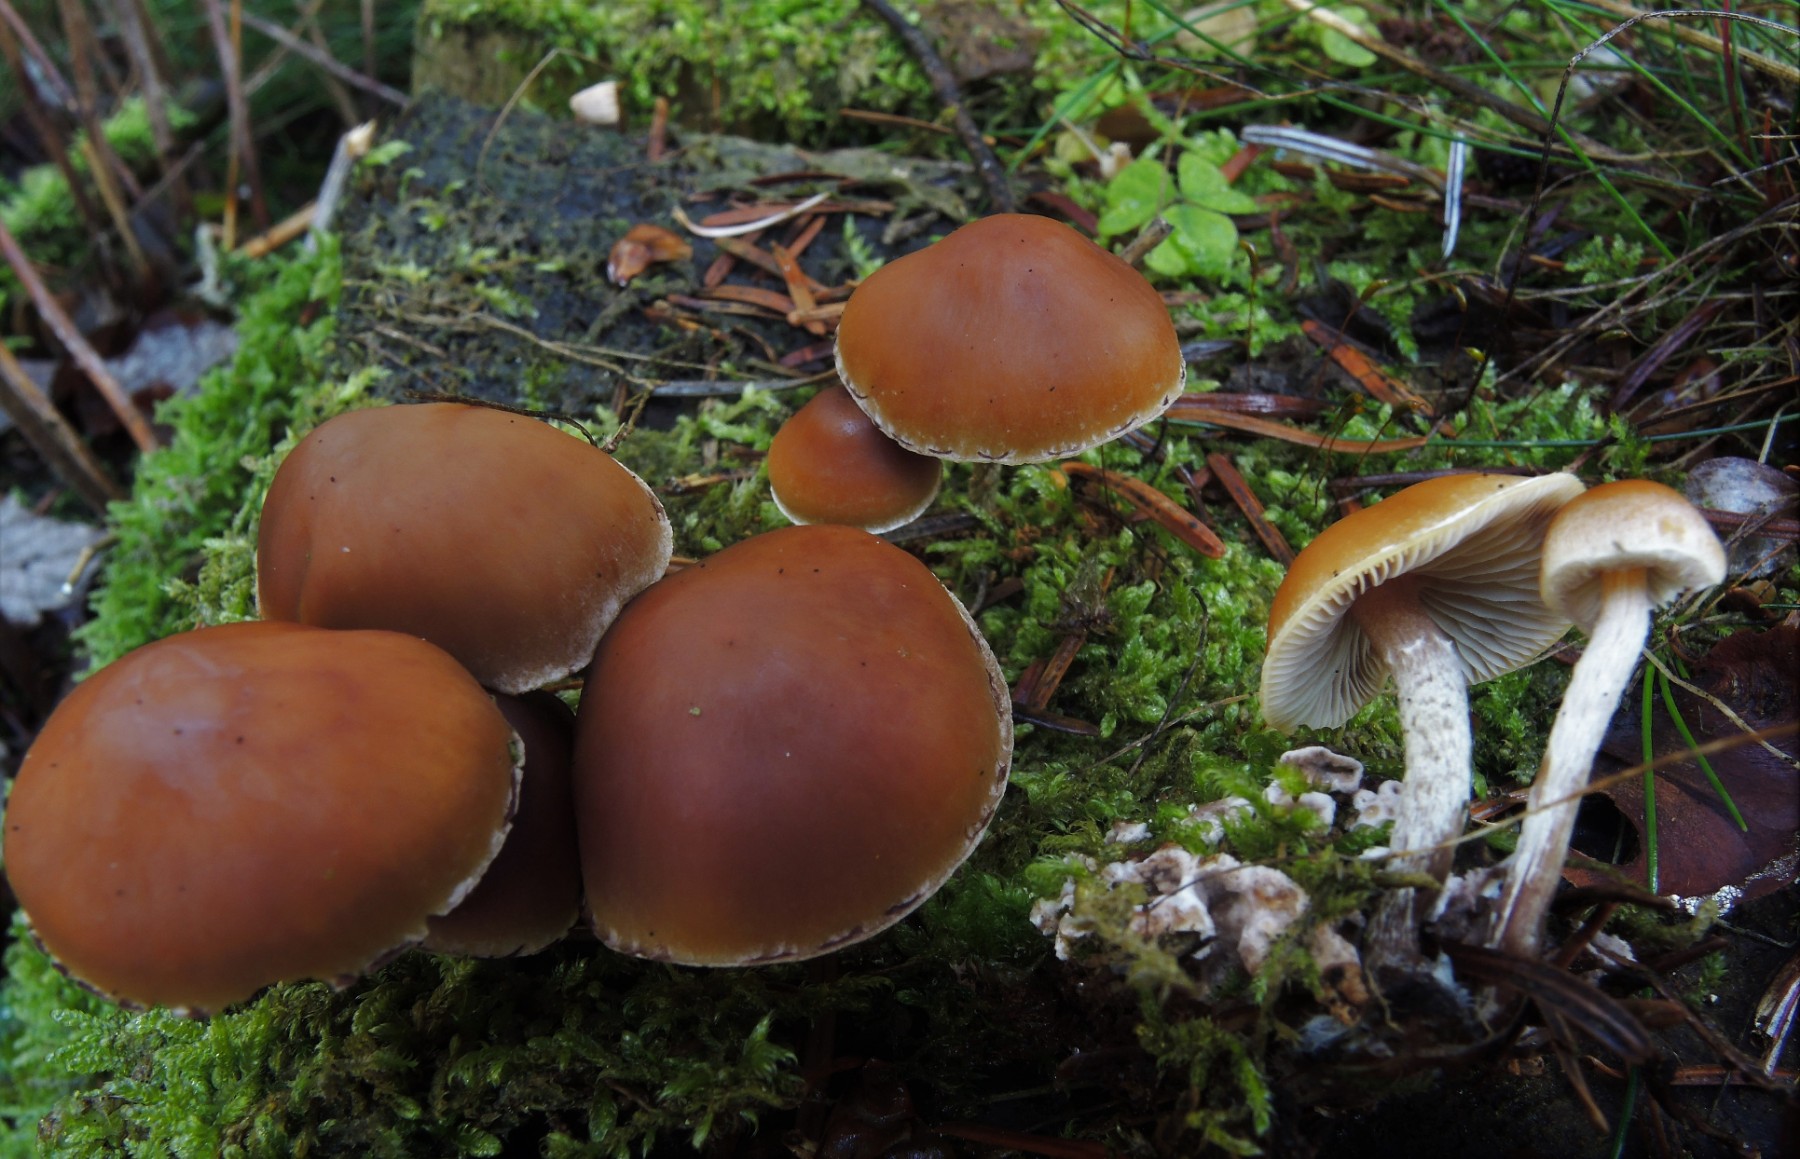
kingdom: Fungi
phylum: Basidiomycota
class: Agaricomycetes
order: Agaricales
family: Hymenogastraceae
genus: Galerina
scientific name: Galerina marginata
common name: randbæltet hjelmhat
